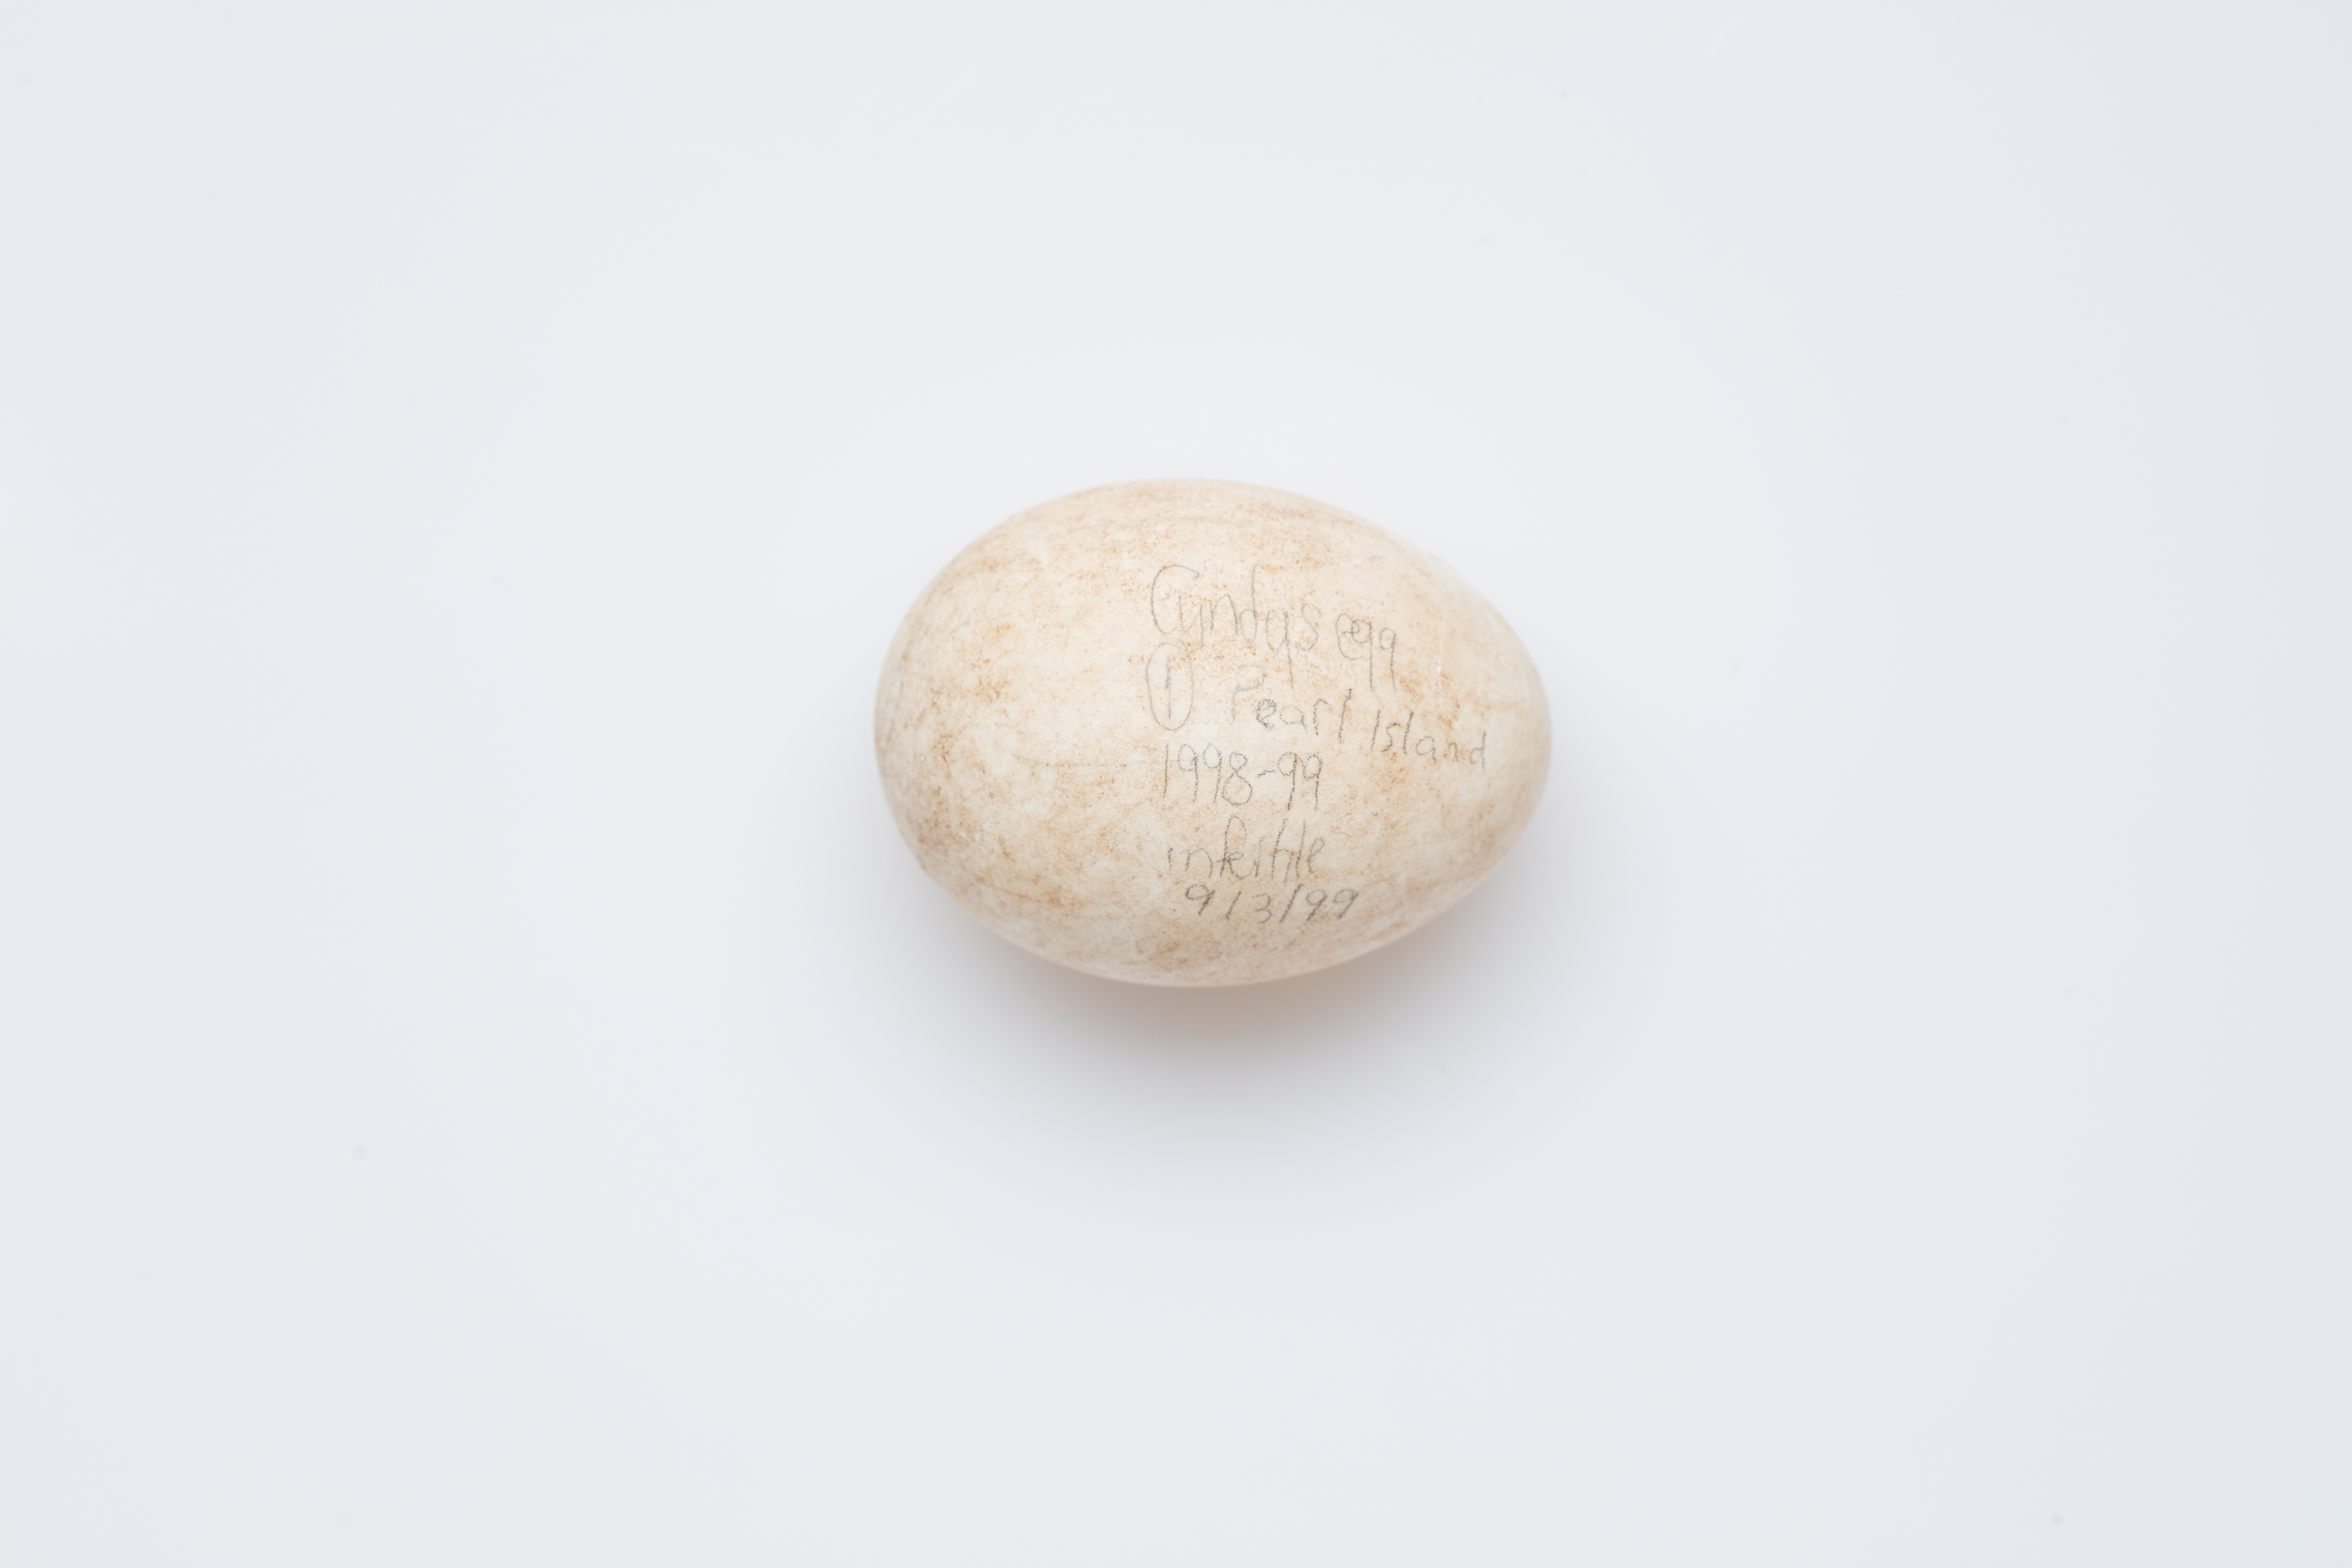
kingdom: Animalia
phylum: Chordata
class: Aves
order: Psittaciformes
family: Psittacidae
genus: Strigops
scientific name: Strigops habroptila
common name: Kakapo
